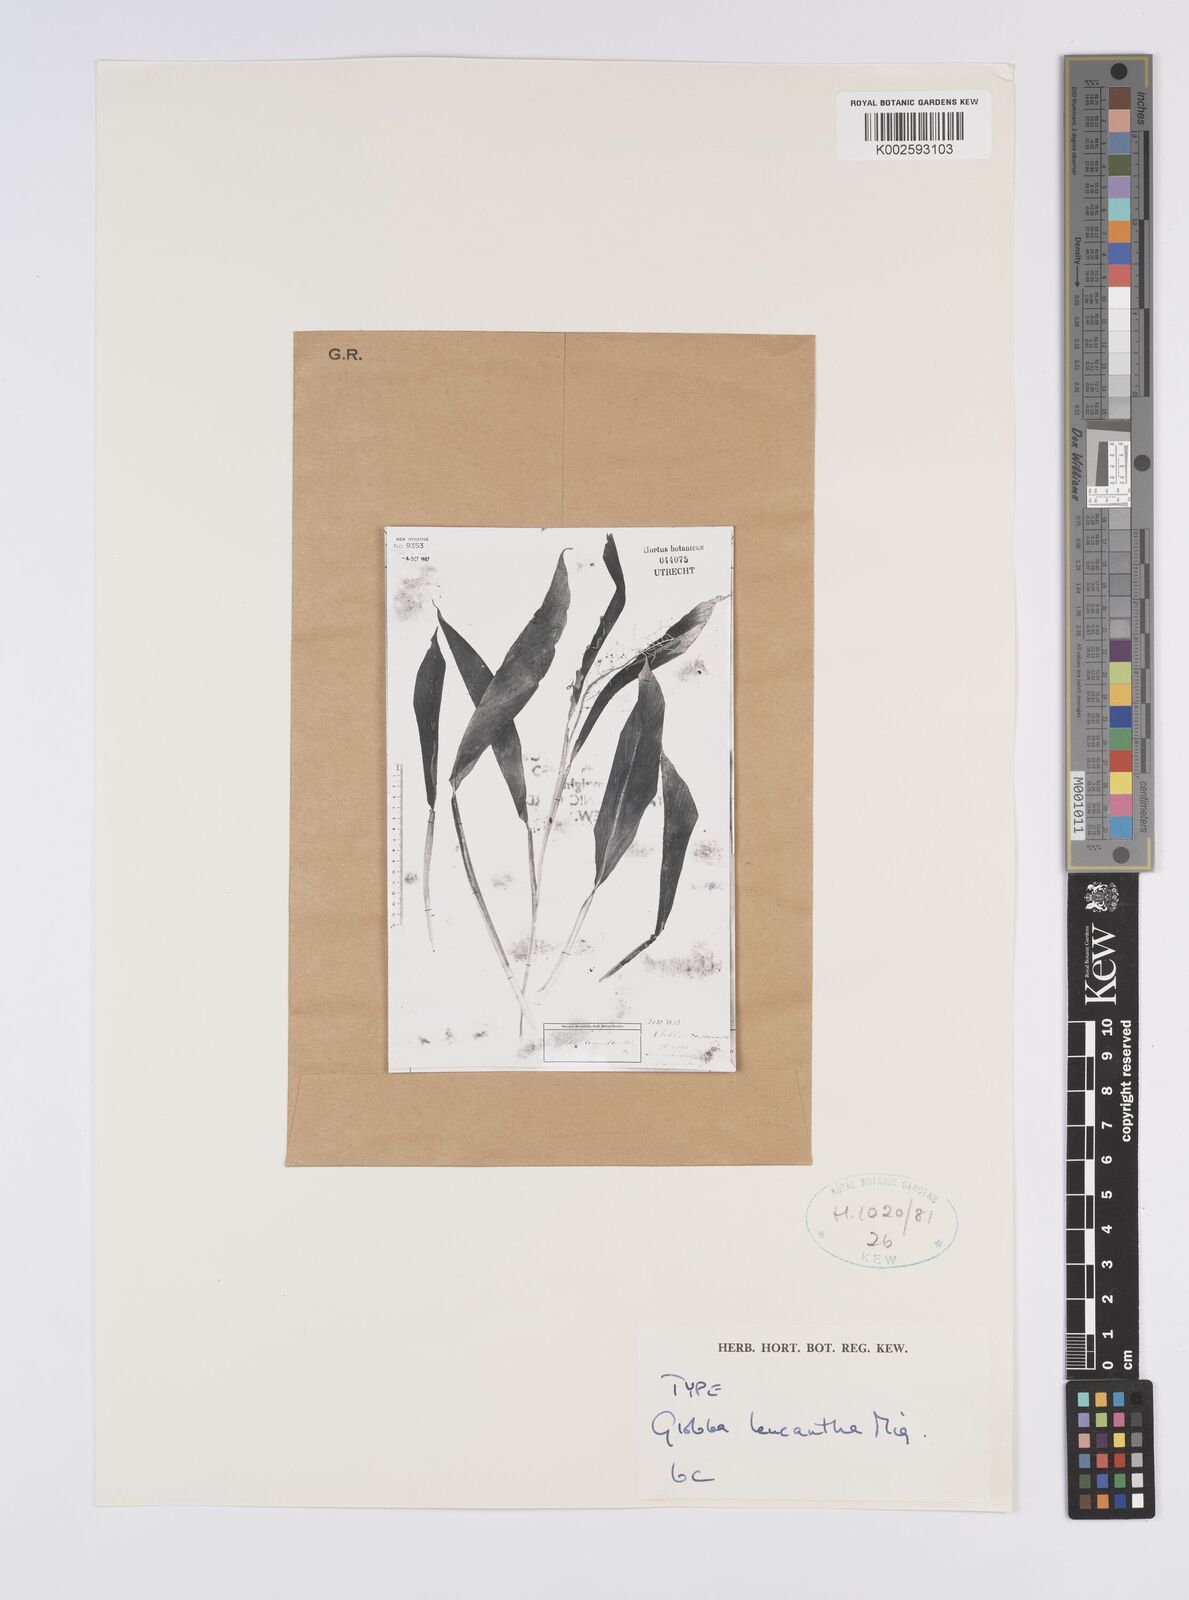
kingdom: Plantae
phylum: Tracheophyta
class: Liliopsida
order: Zingiberales
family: Zingiberaceae
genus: Globba
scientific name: Globba leucantha
